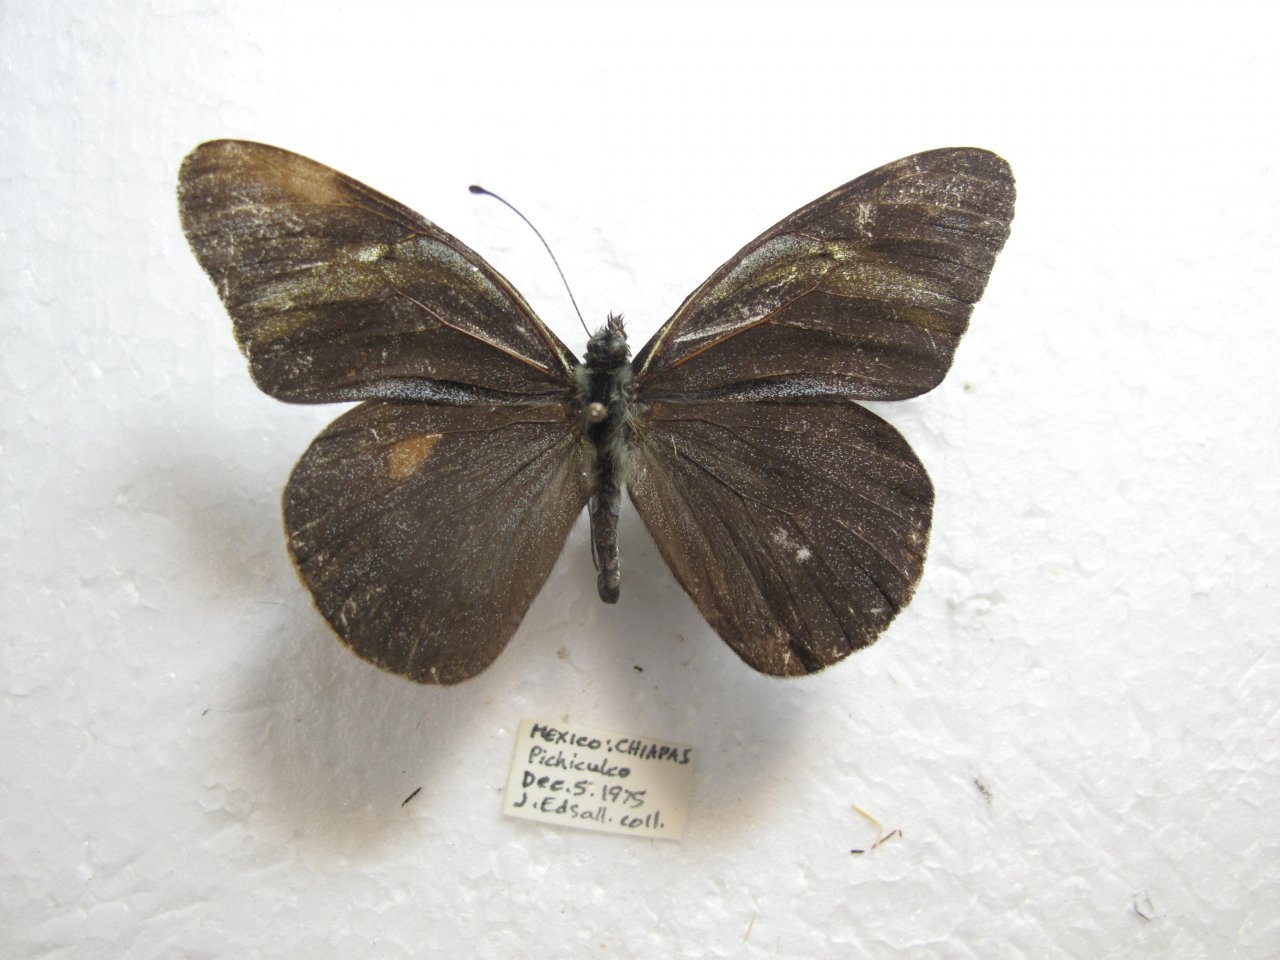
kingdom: Animalia
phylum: Arthropoda
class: Insecta
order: Lepidoptera
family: Pieridae
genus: Pereute
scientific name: Pereute charops
